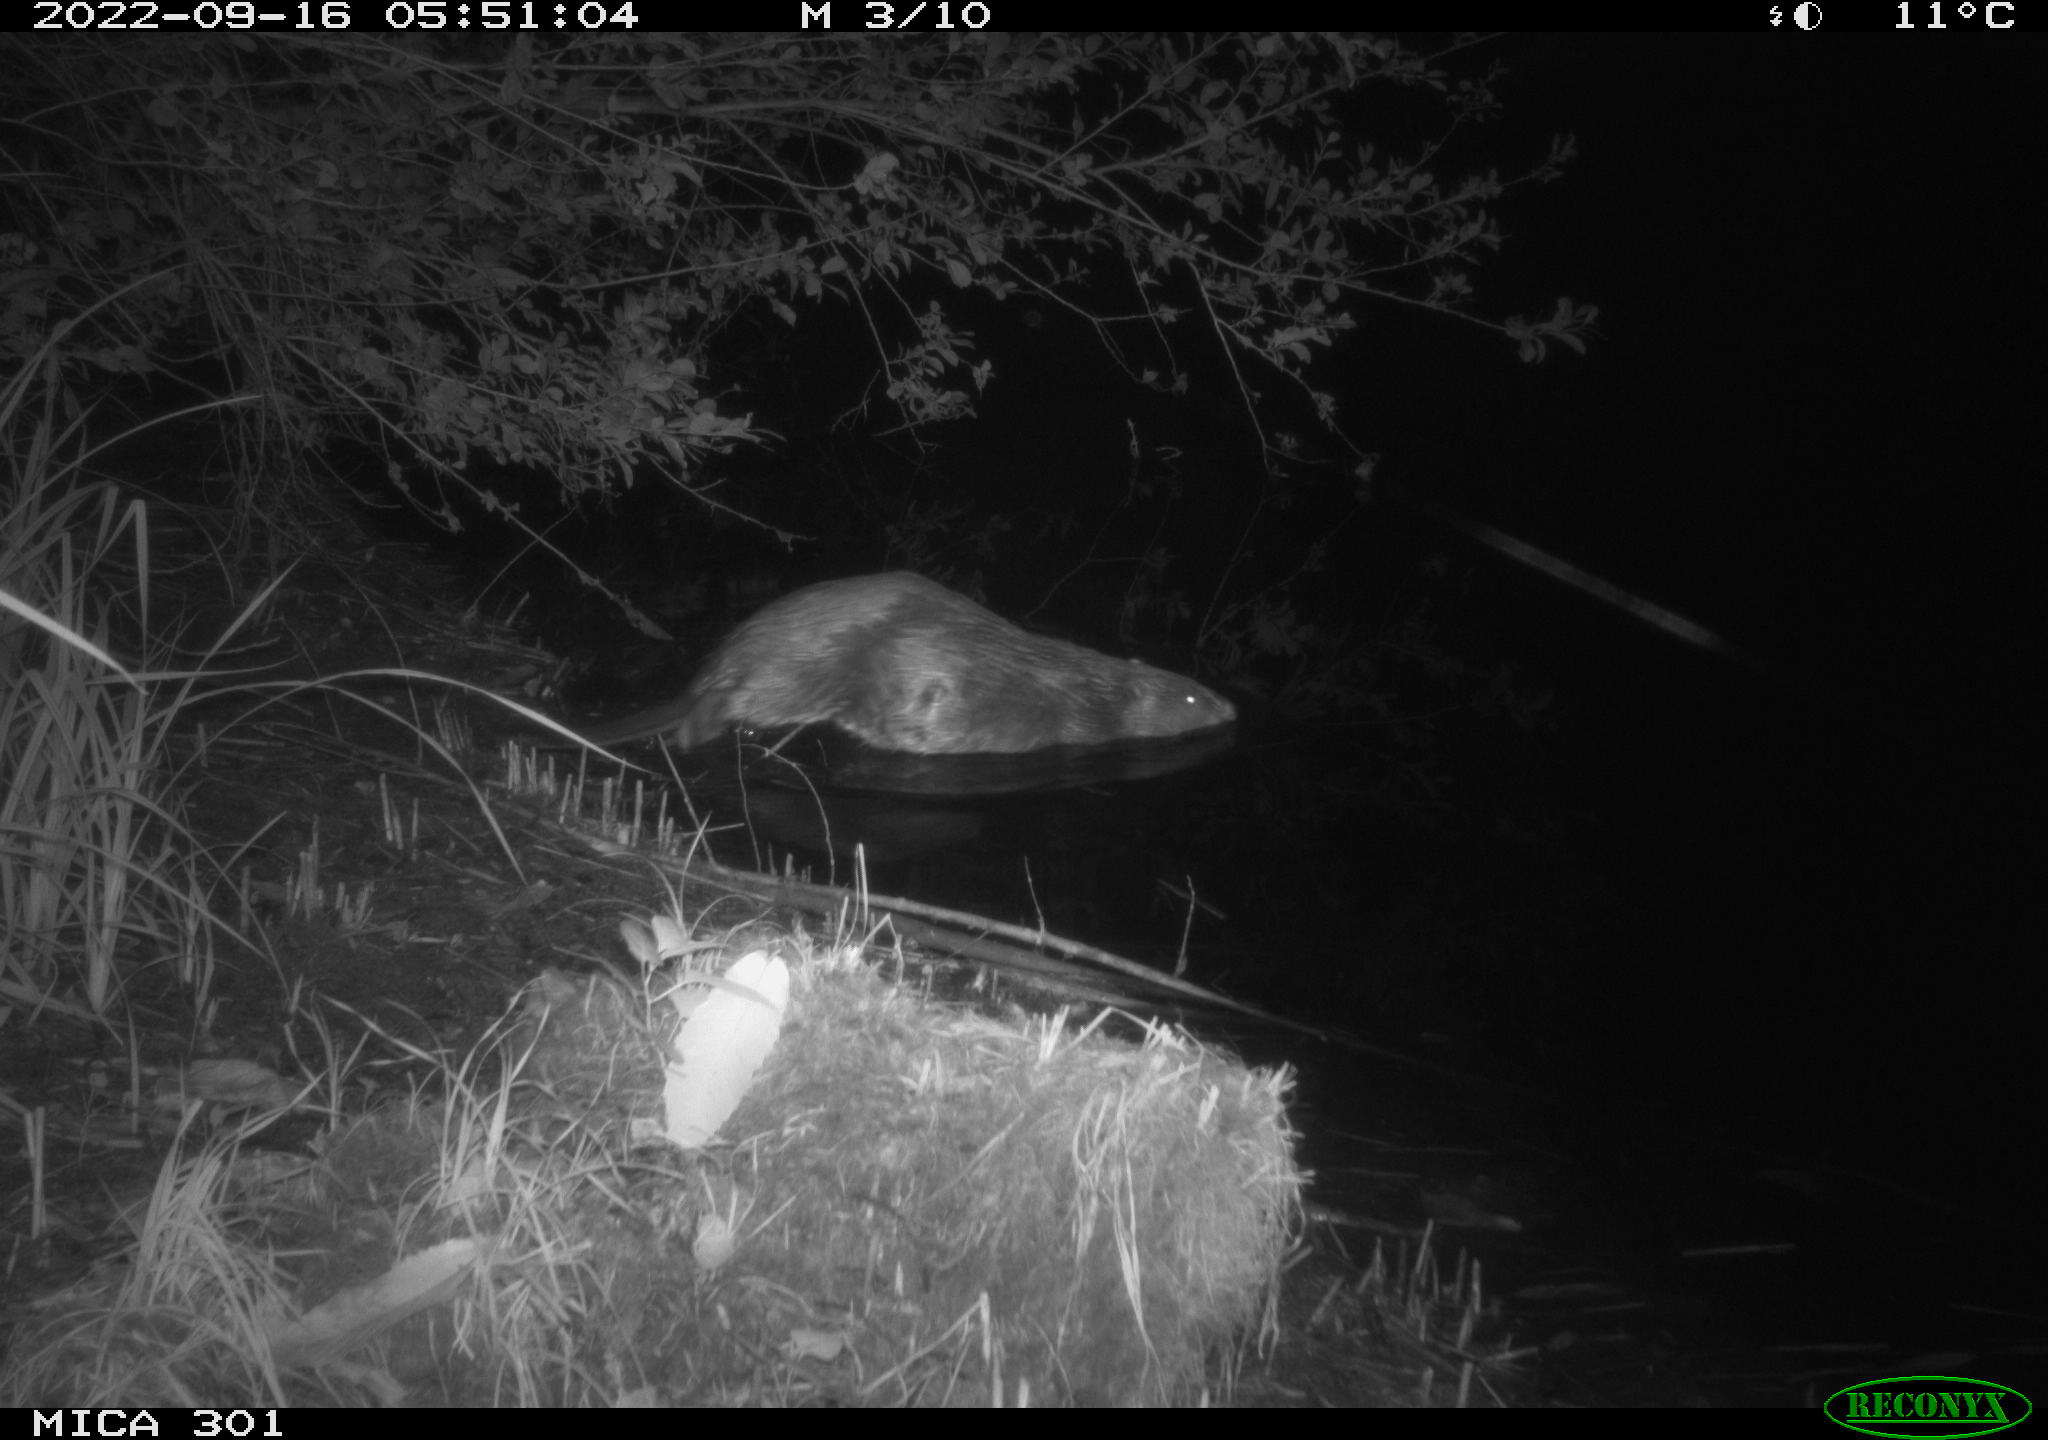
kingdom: Animalia
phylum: Chordata
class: Mammalia
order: Rodentia
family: Castoridae
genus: Castor
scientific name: Castor fiber
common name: Eurasian beaver
